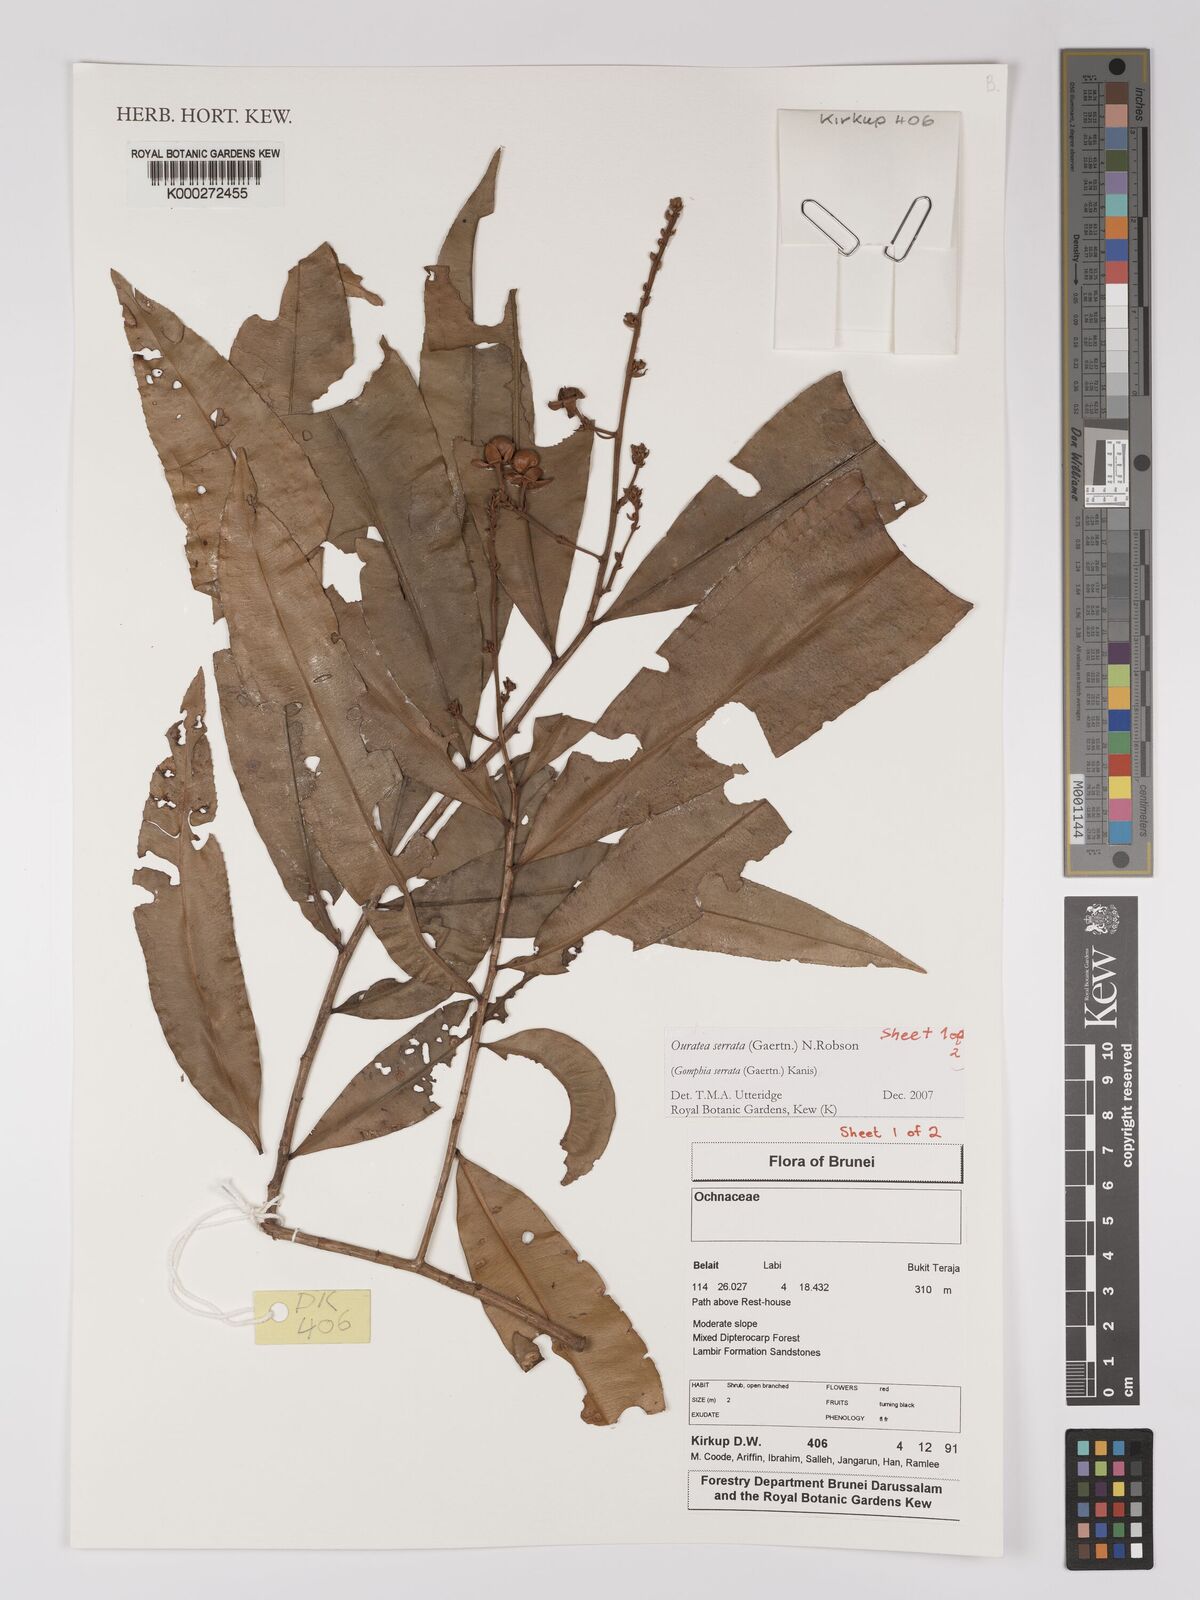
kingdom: Plantae
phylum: Tracheophyta
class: Magnoliopsida
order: Malpighiales
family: Ochnaceae
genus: Gomphia
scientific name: Gomphia serrata
